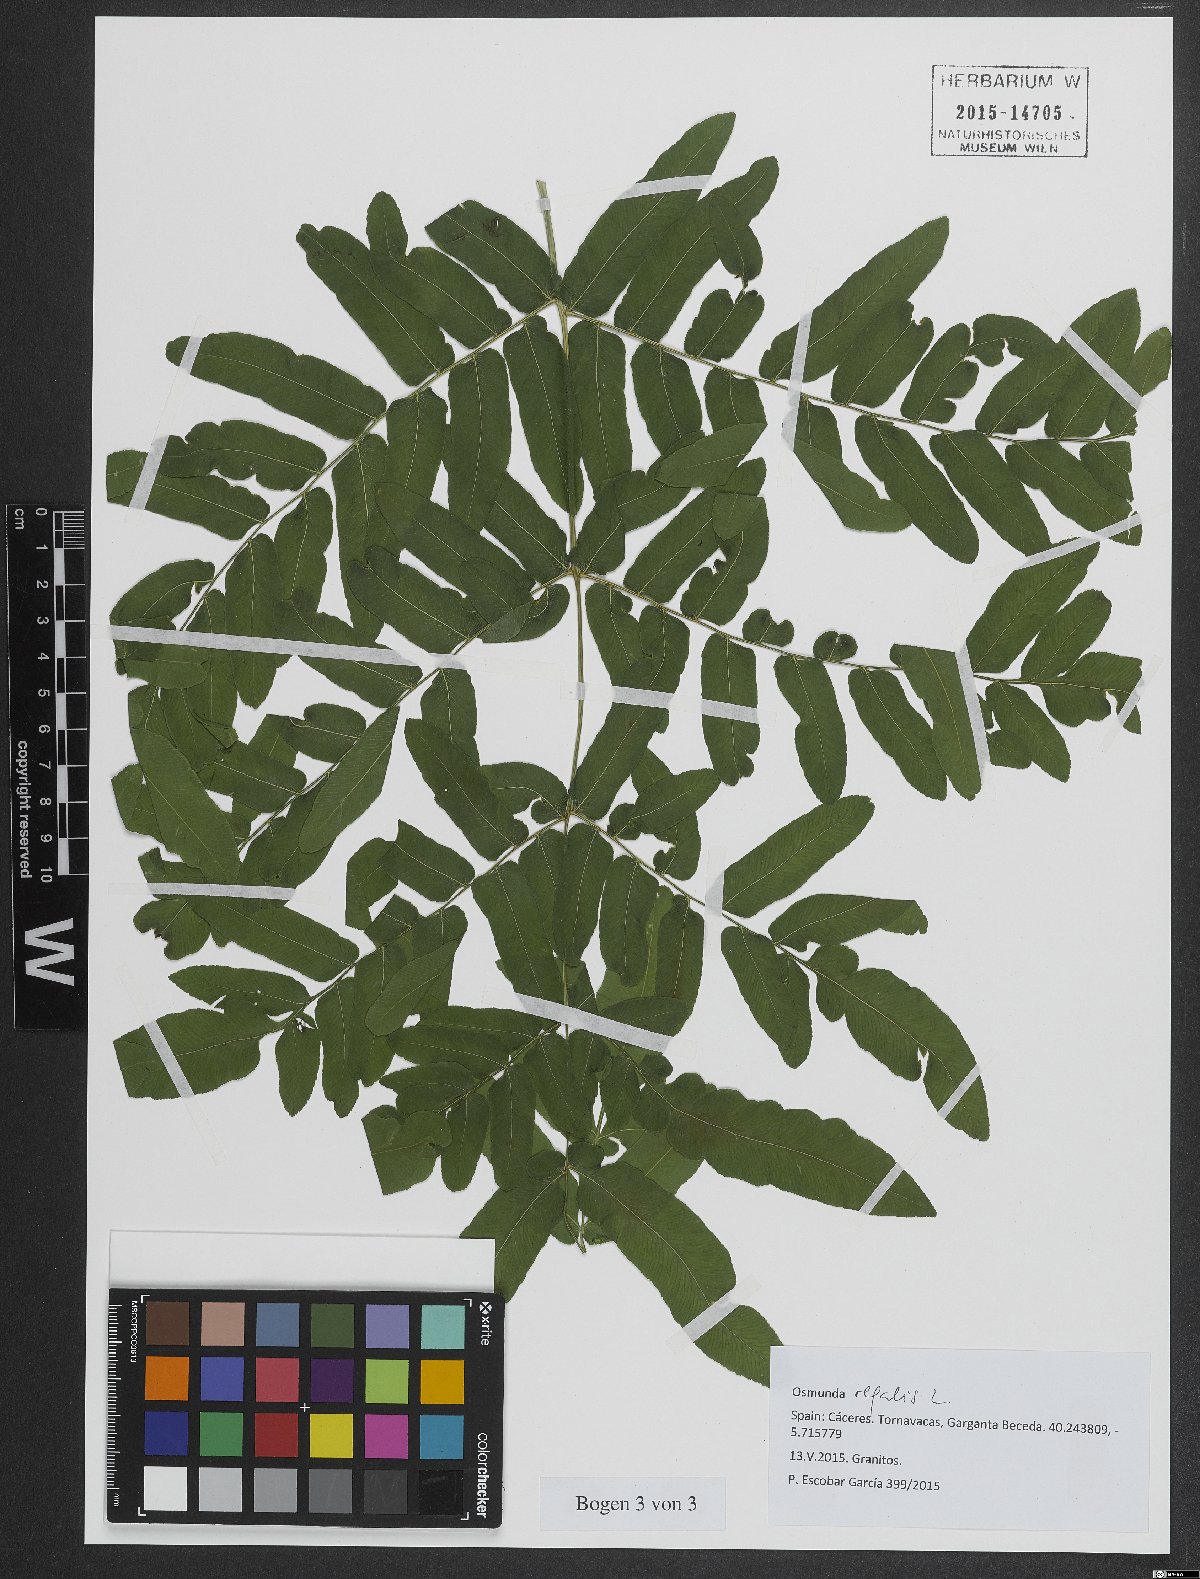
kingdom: Plantae
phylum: Tracheophyta
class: Polypodiopsida
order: Osmundales
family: Osmundaceae
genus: Osmunda
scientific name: Osmunda regalis
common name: Royal fern
